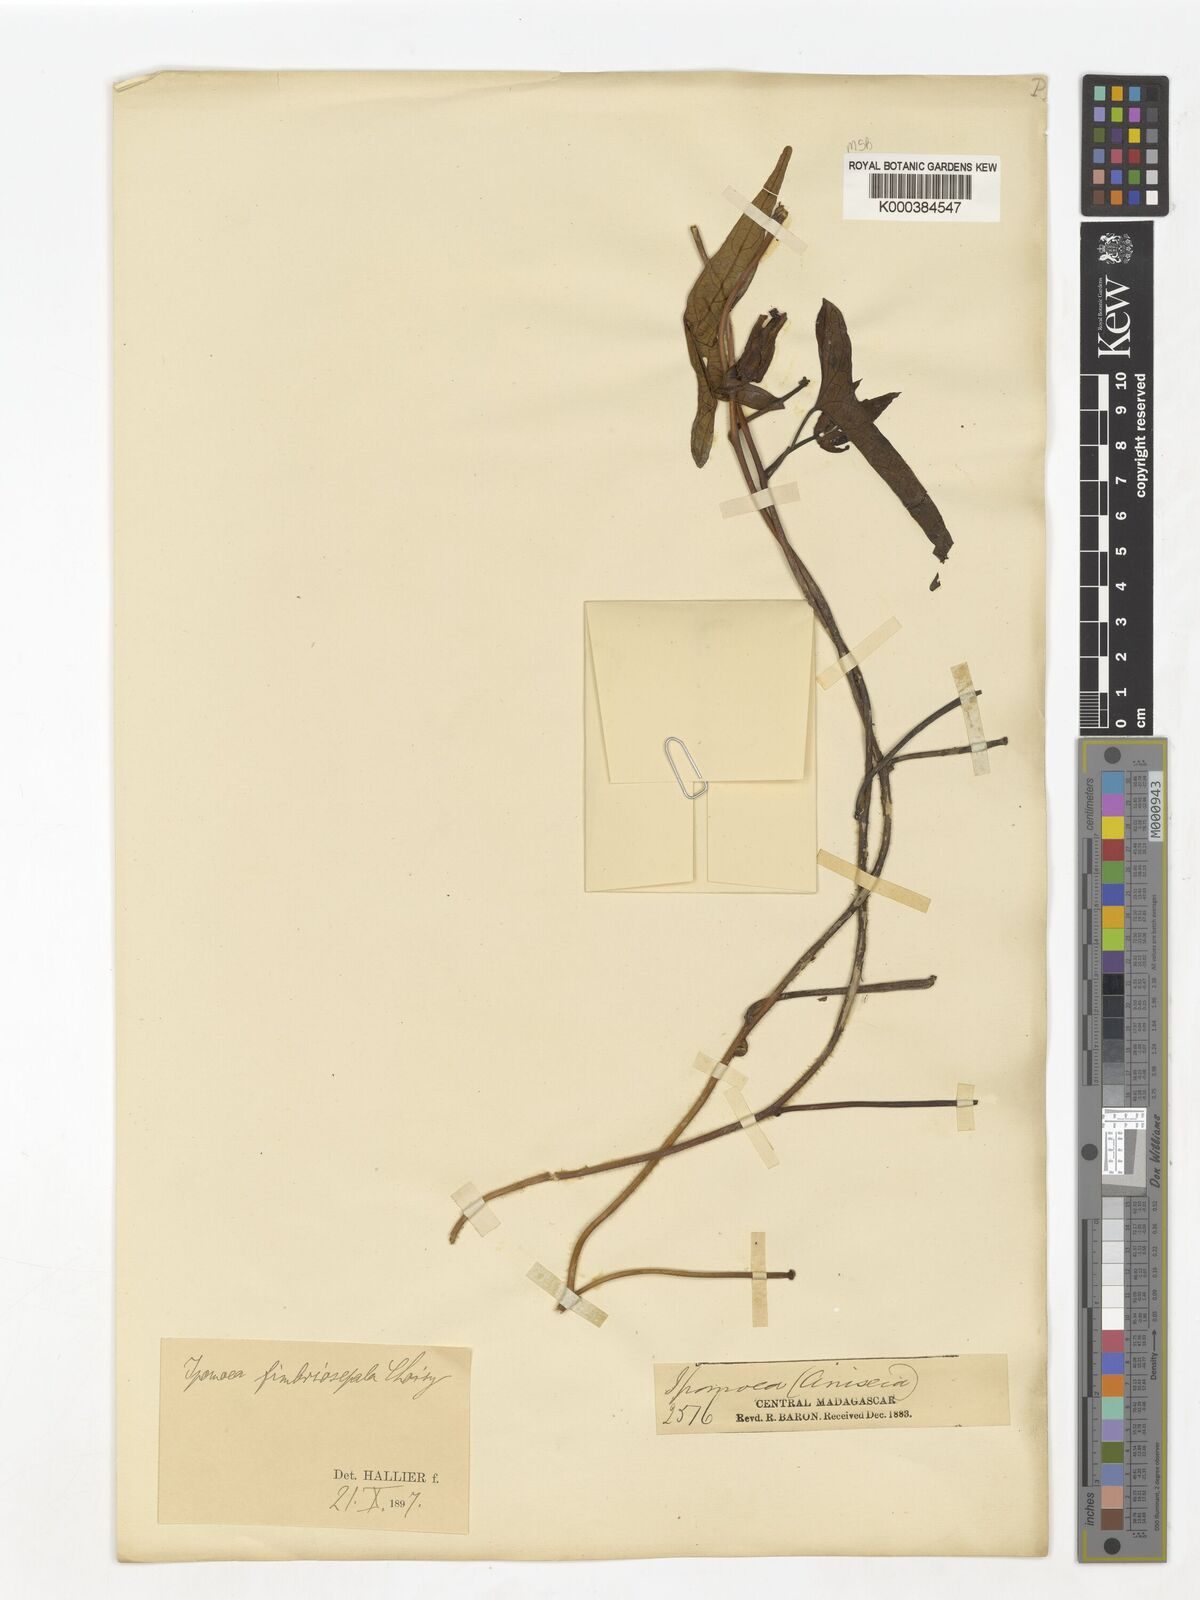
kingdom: Plantae
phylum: Tracheophyta
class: Magnoliopsida
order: Solanales
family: Convolvulaceae
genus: Ipomoea
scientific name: Ipomoea fimbriosepala
